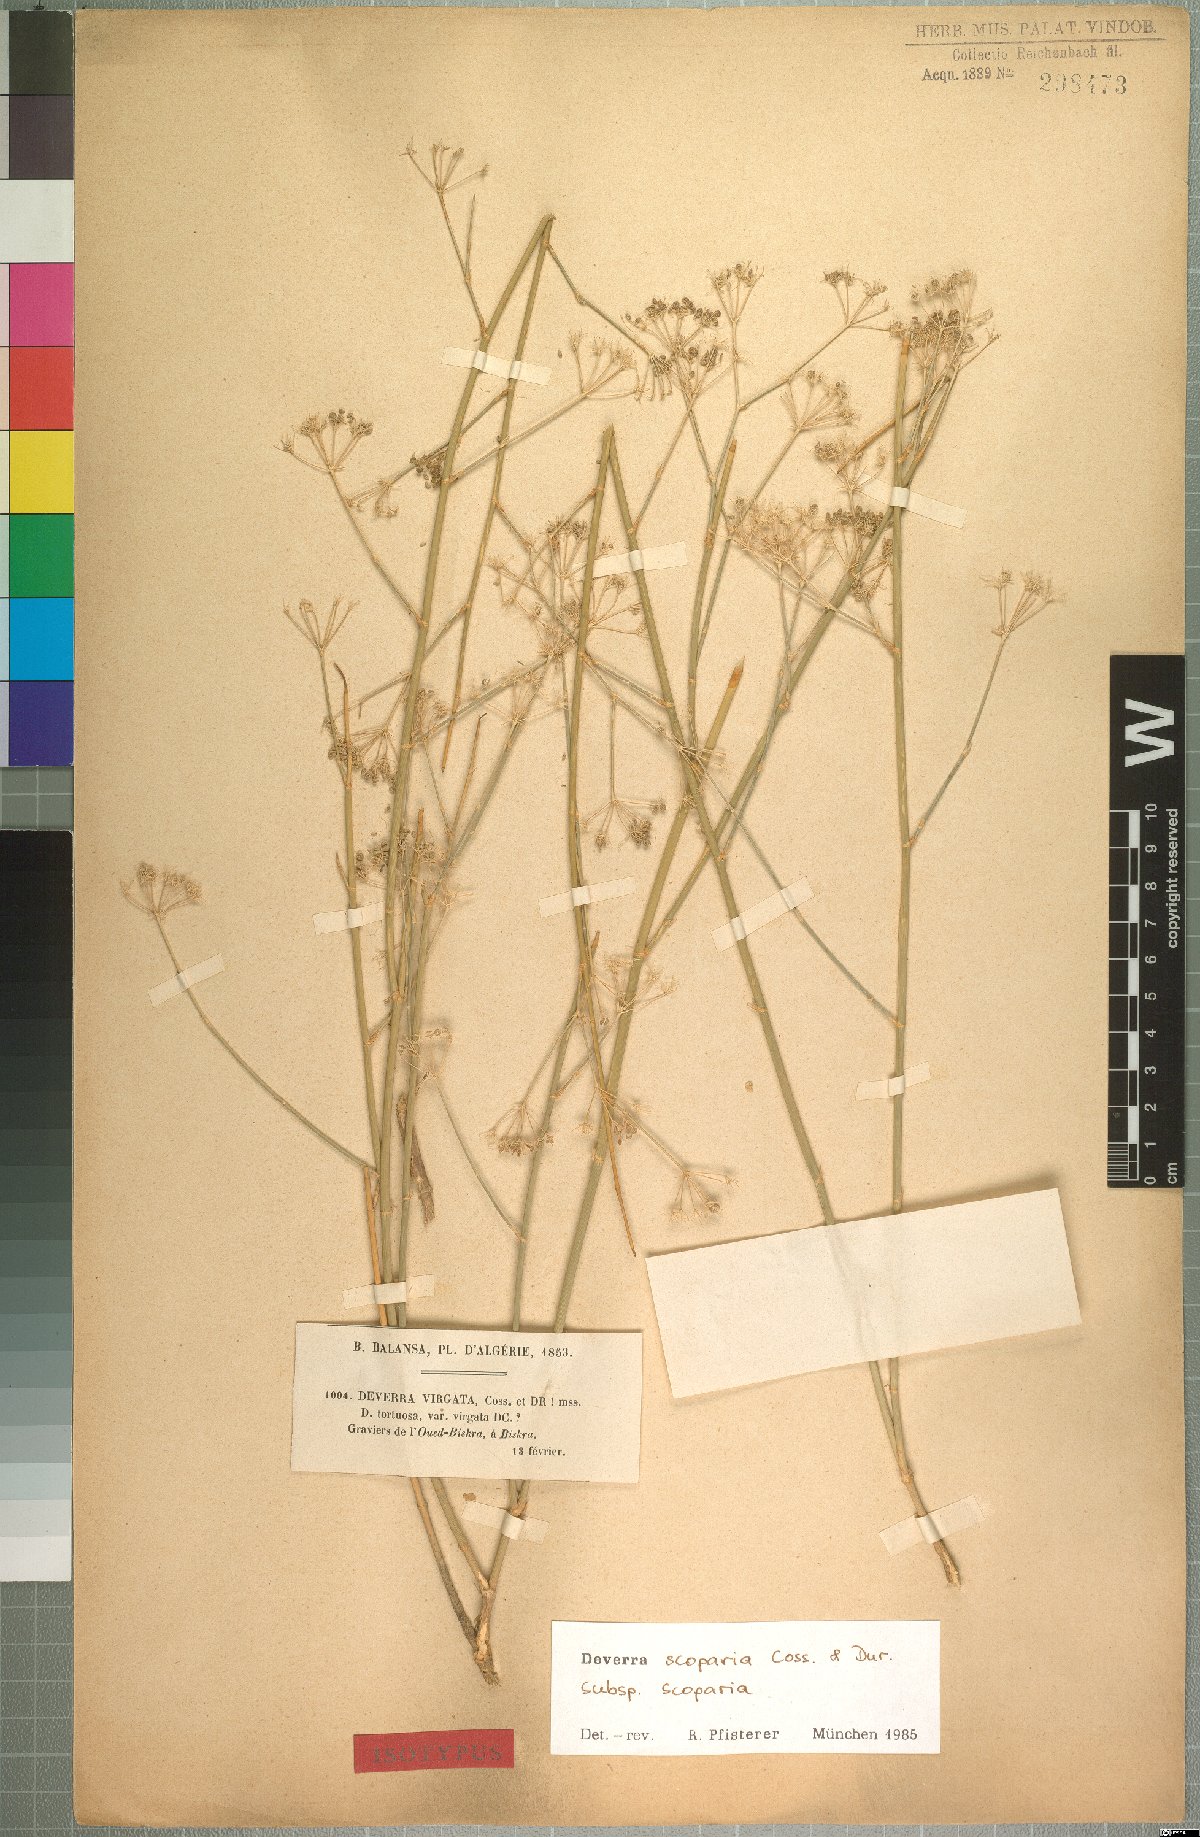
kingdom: Plantae
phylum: Tracheophyta
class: Magnoliopsida
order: Apiales
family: Apiaceae
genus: Deverra
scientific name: Deverra scoparia
